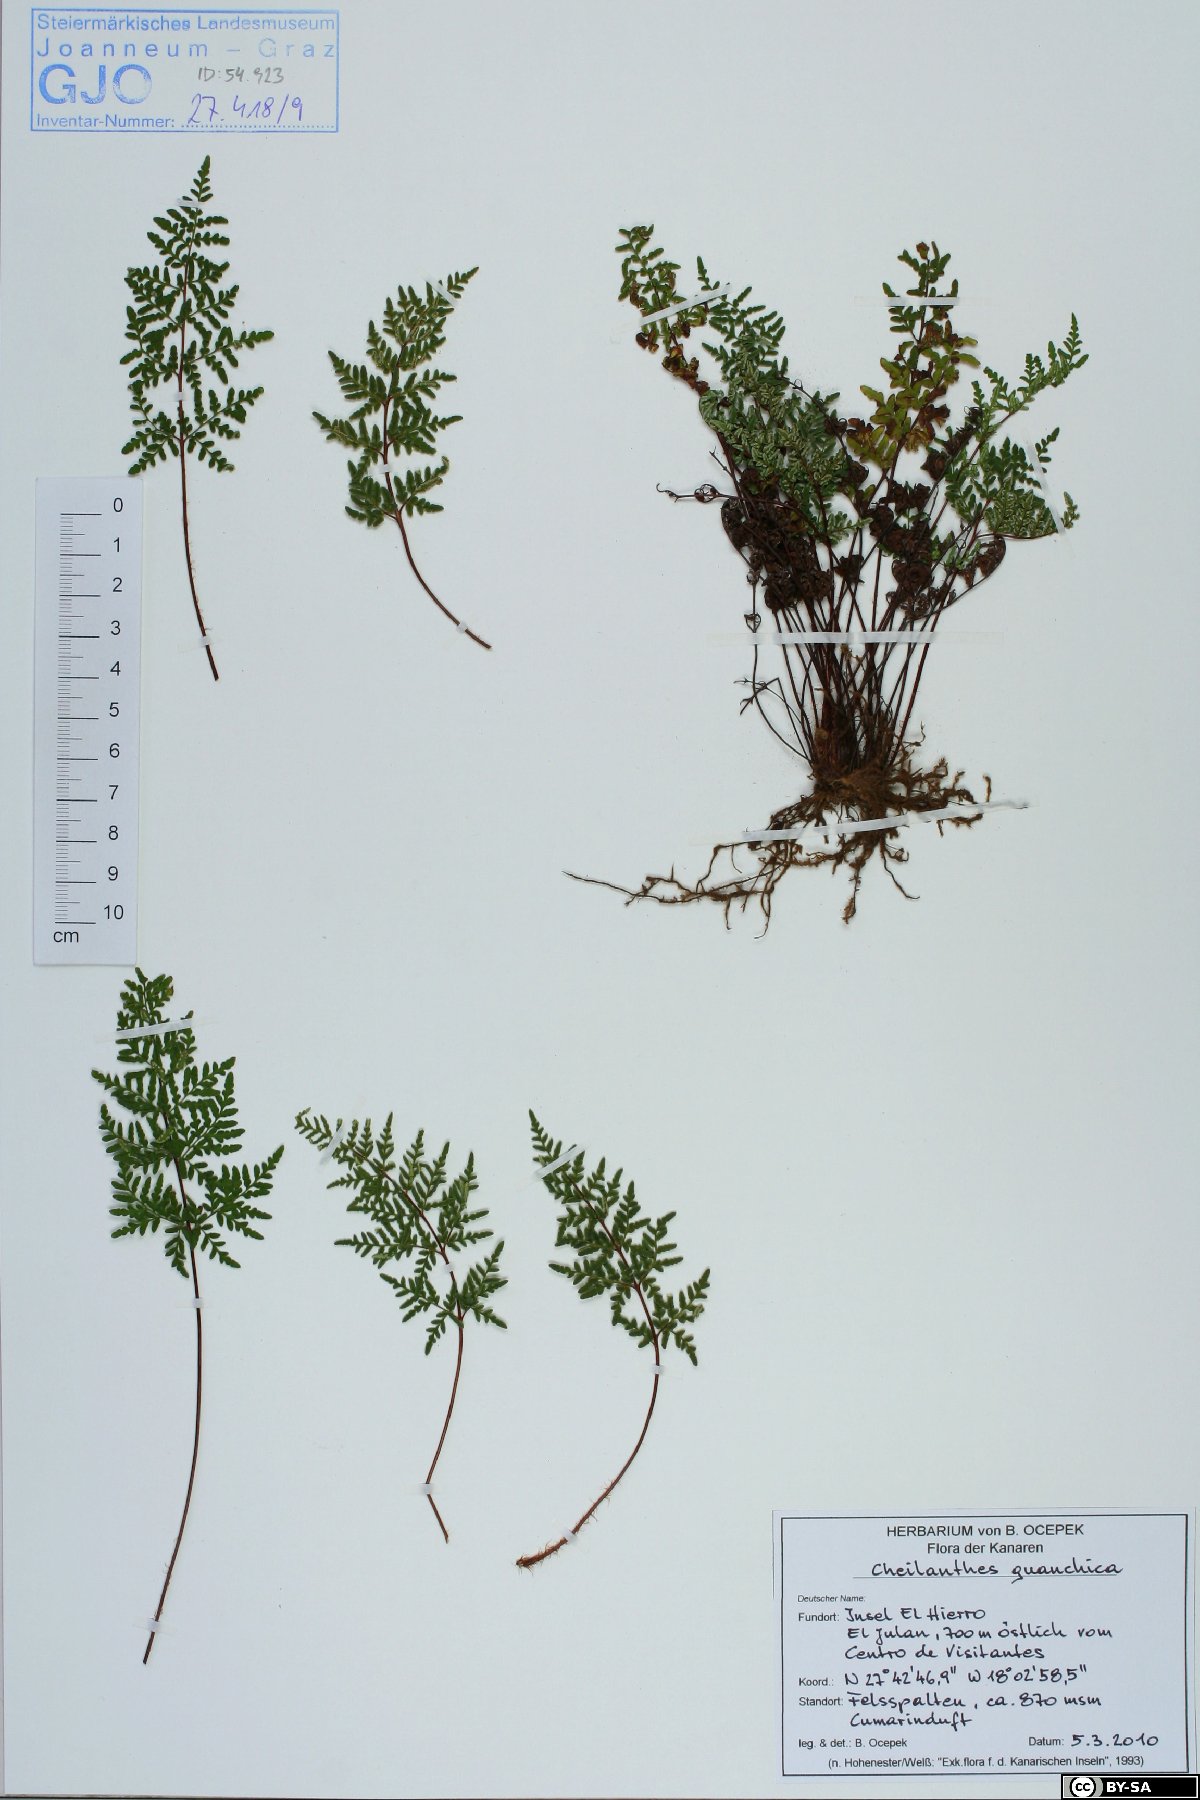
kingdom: Plantae
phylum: Tracheophyta
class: Polypodiopsida
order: Polypodiales
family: Pteridaceae
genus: Oeosporangium
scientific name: Oeosporangium guanchicum
